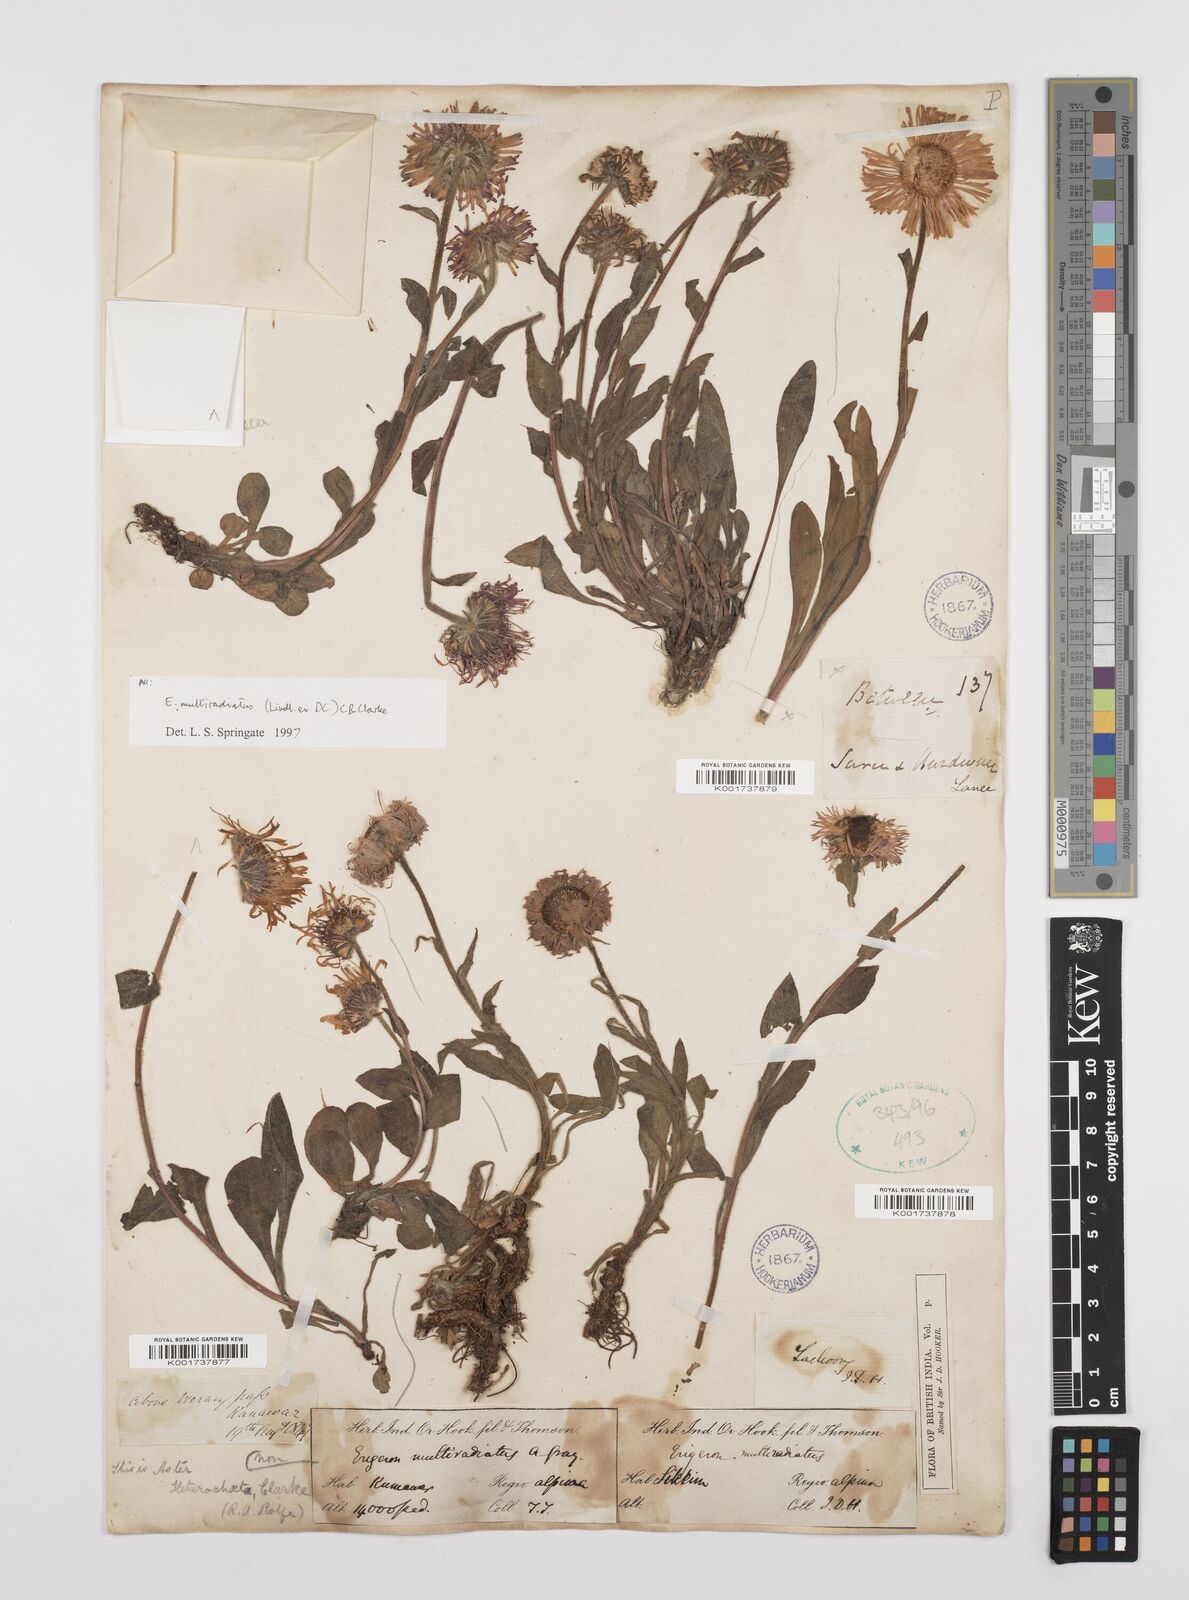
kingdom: Plantae
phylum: Tracheophyta
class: Magnoliopsida
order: Asterales
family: Asteraceae
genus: Erigeron
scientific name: Erigeron acris
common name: Blue fleabane
